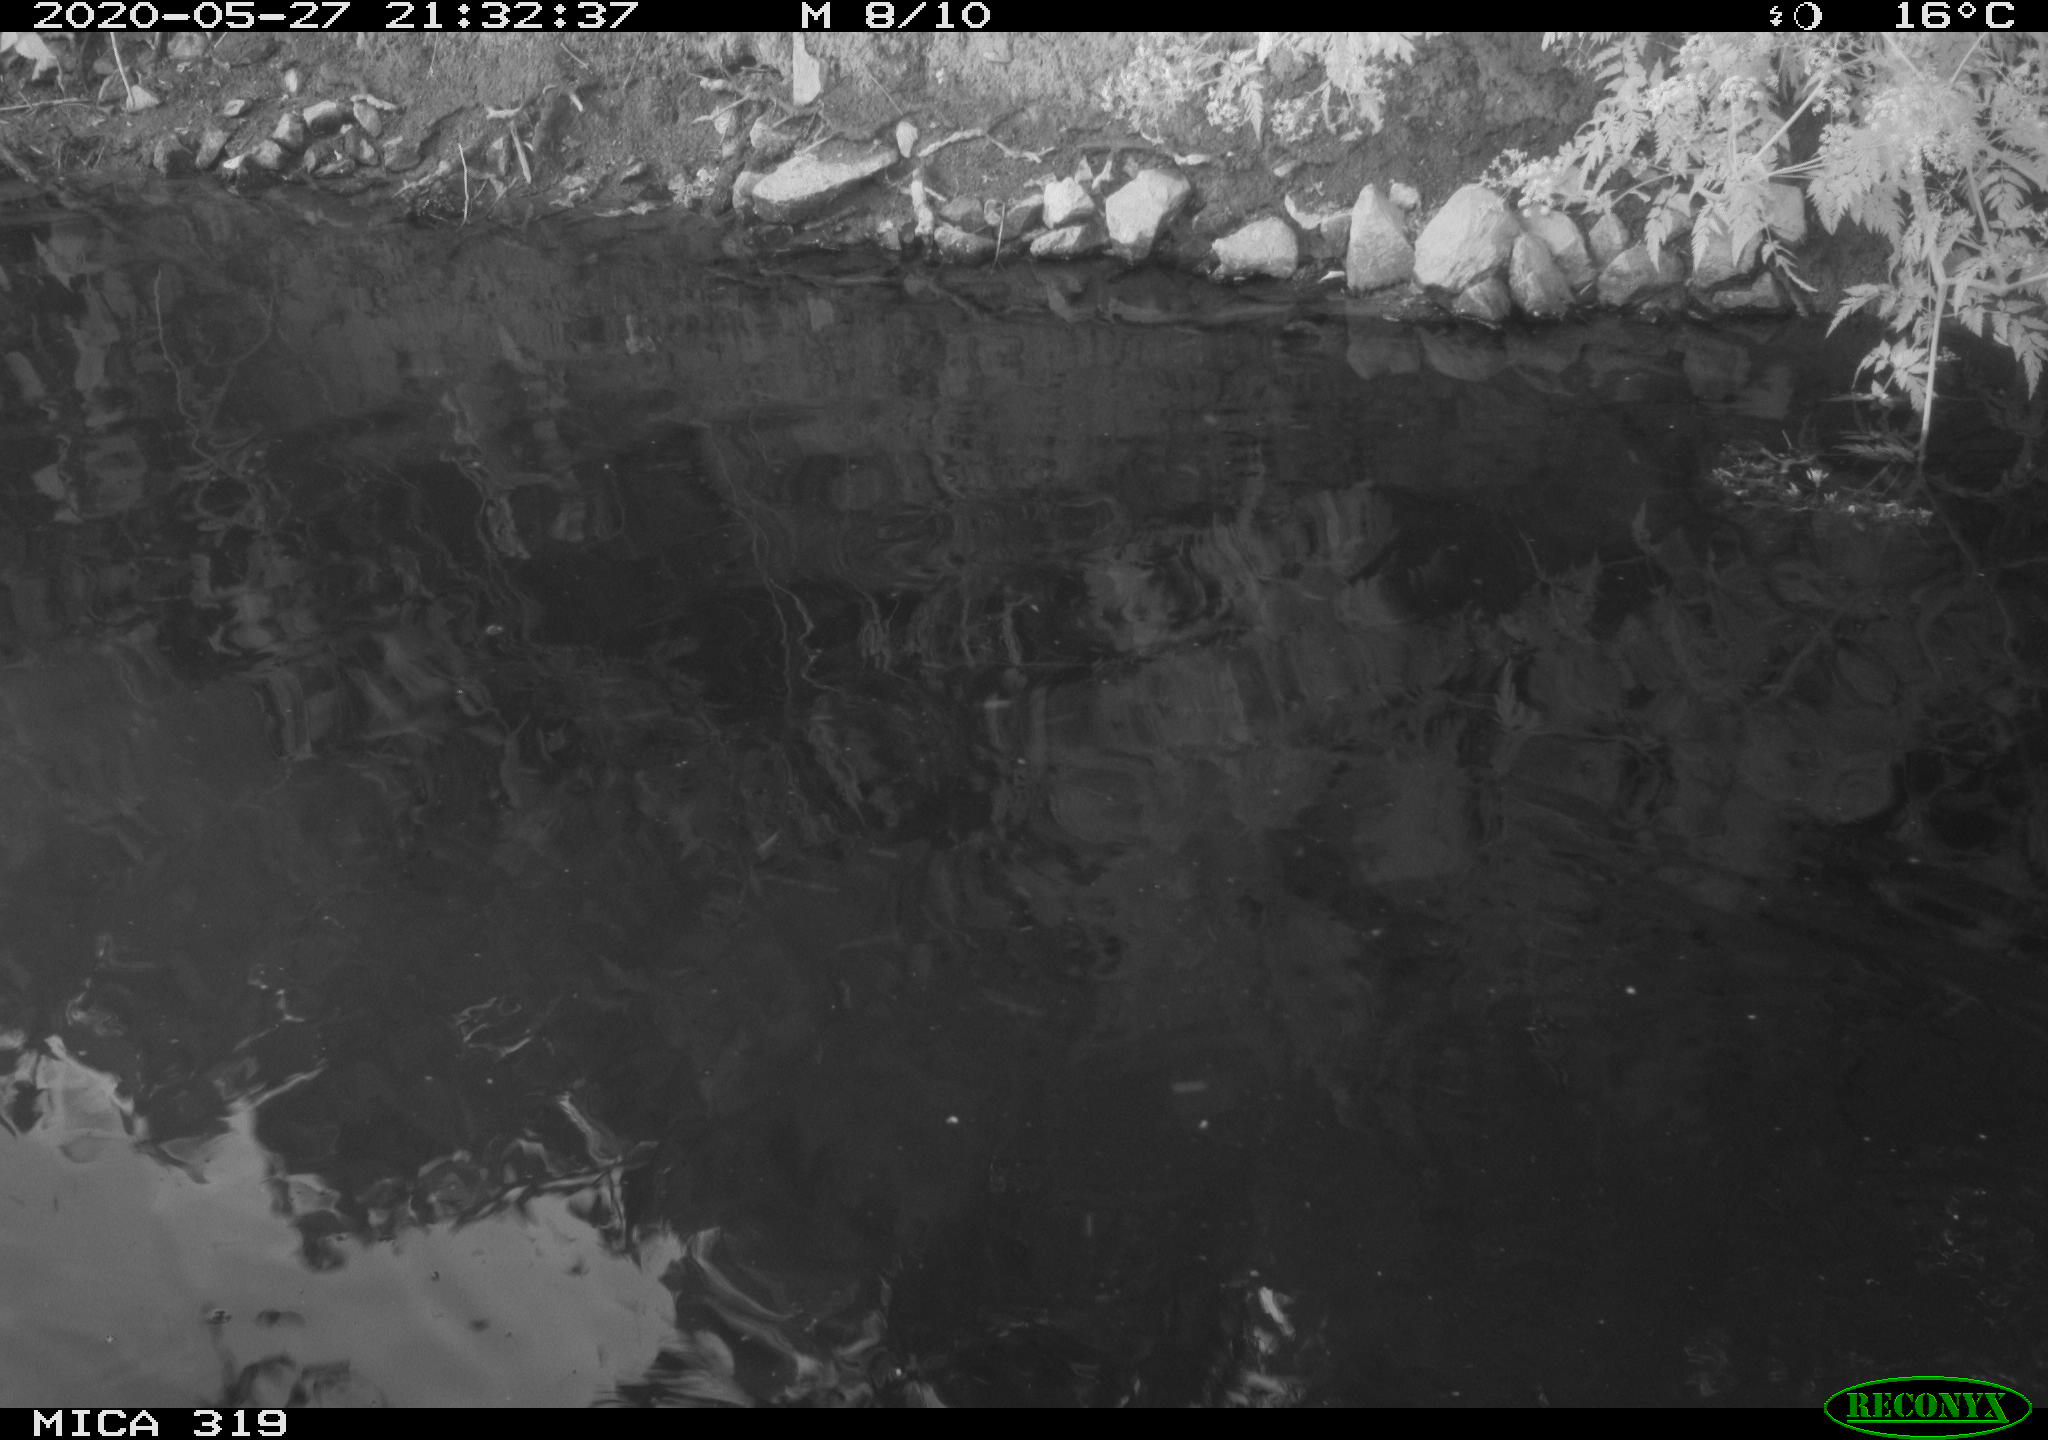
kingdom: Animalia
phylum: Chordata
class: Aves
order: Anseriformes
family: Anatidae
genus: Anas
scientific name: Anas platyrhynchos
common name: Mallard
